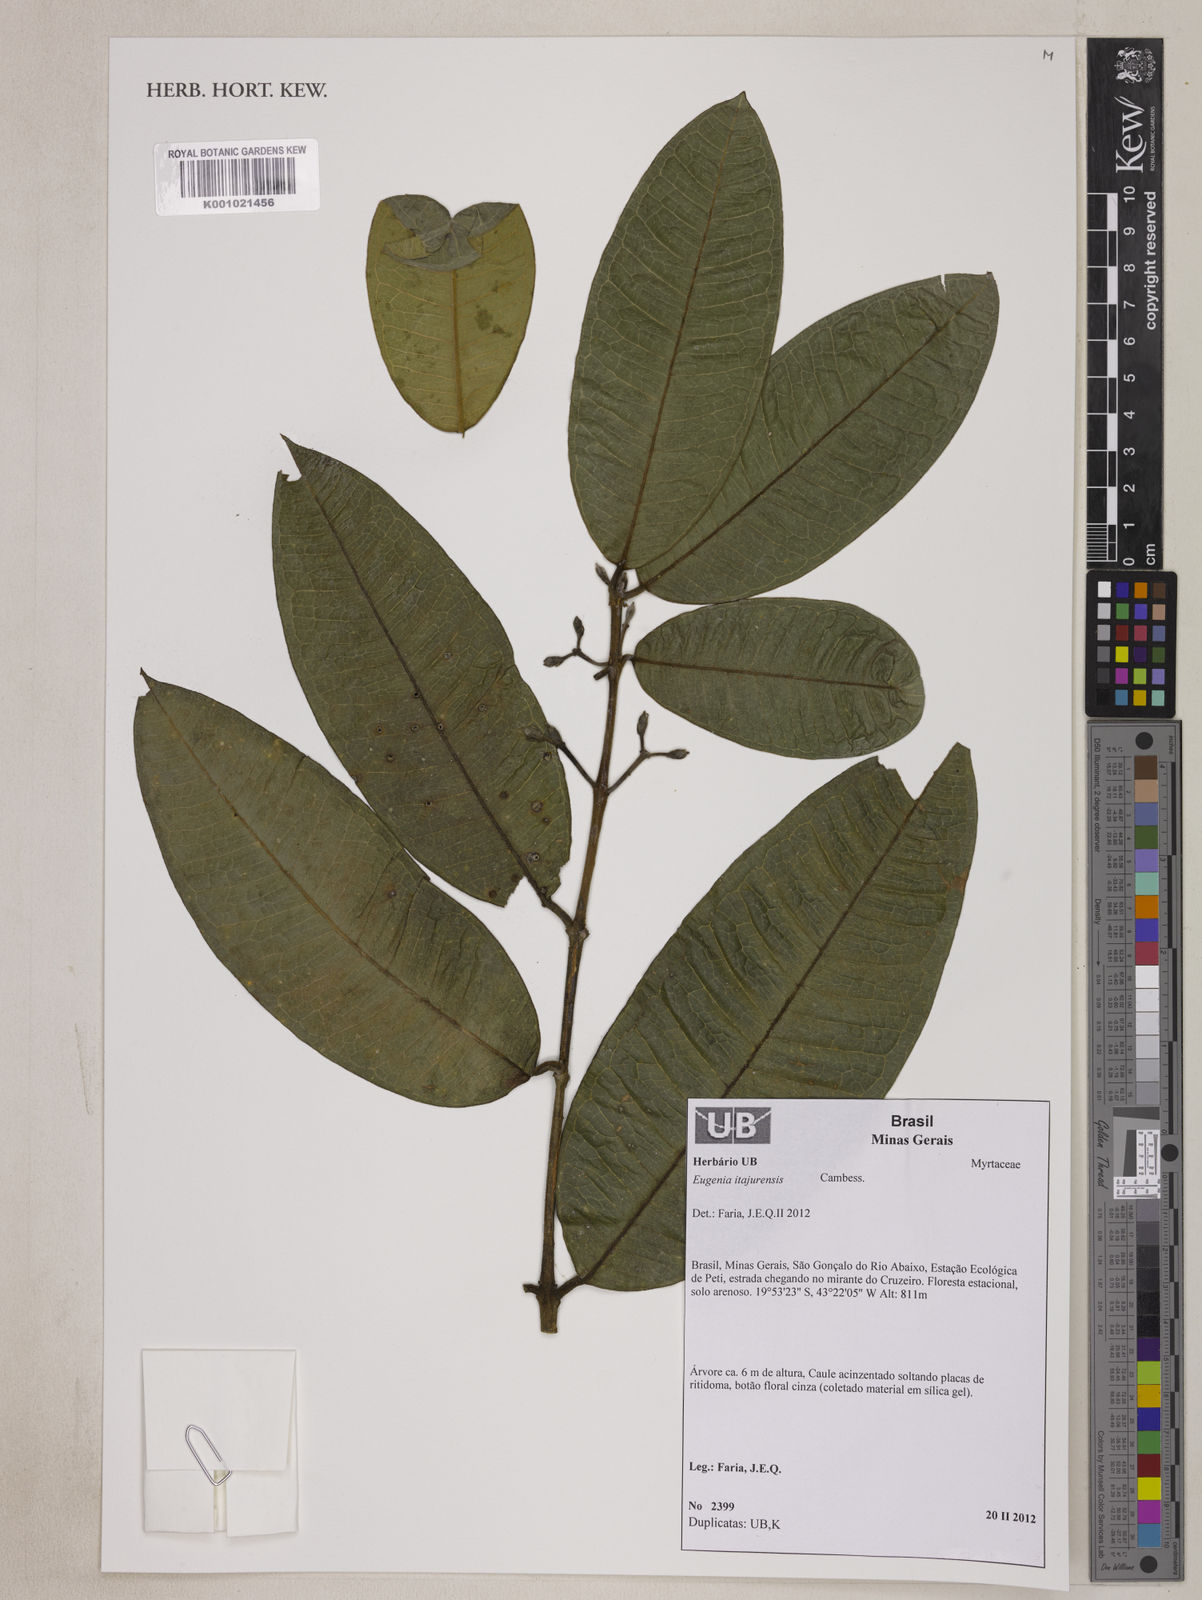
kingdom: Plantae
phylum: Tracheophyta
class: Magnoliopsida
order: Myrtales
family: Myrtaceae
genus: Eugenia
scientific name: Eugenia itajurensis
